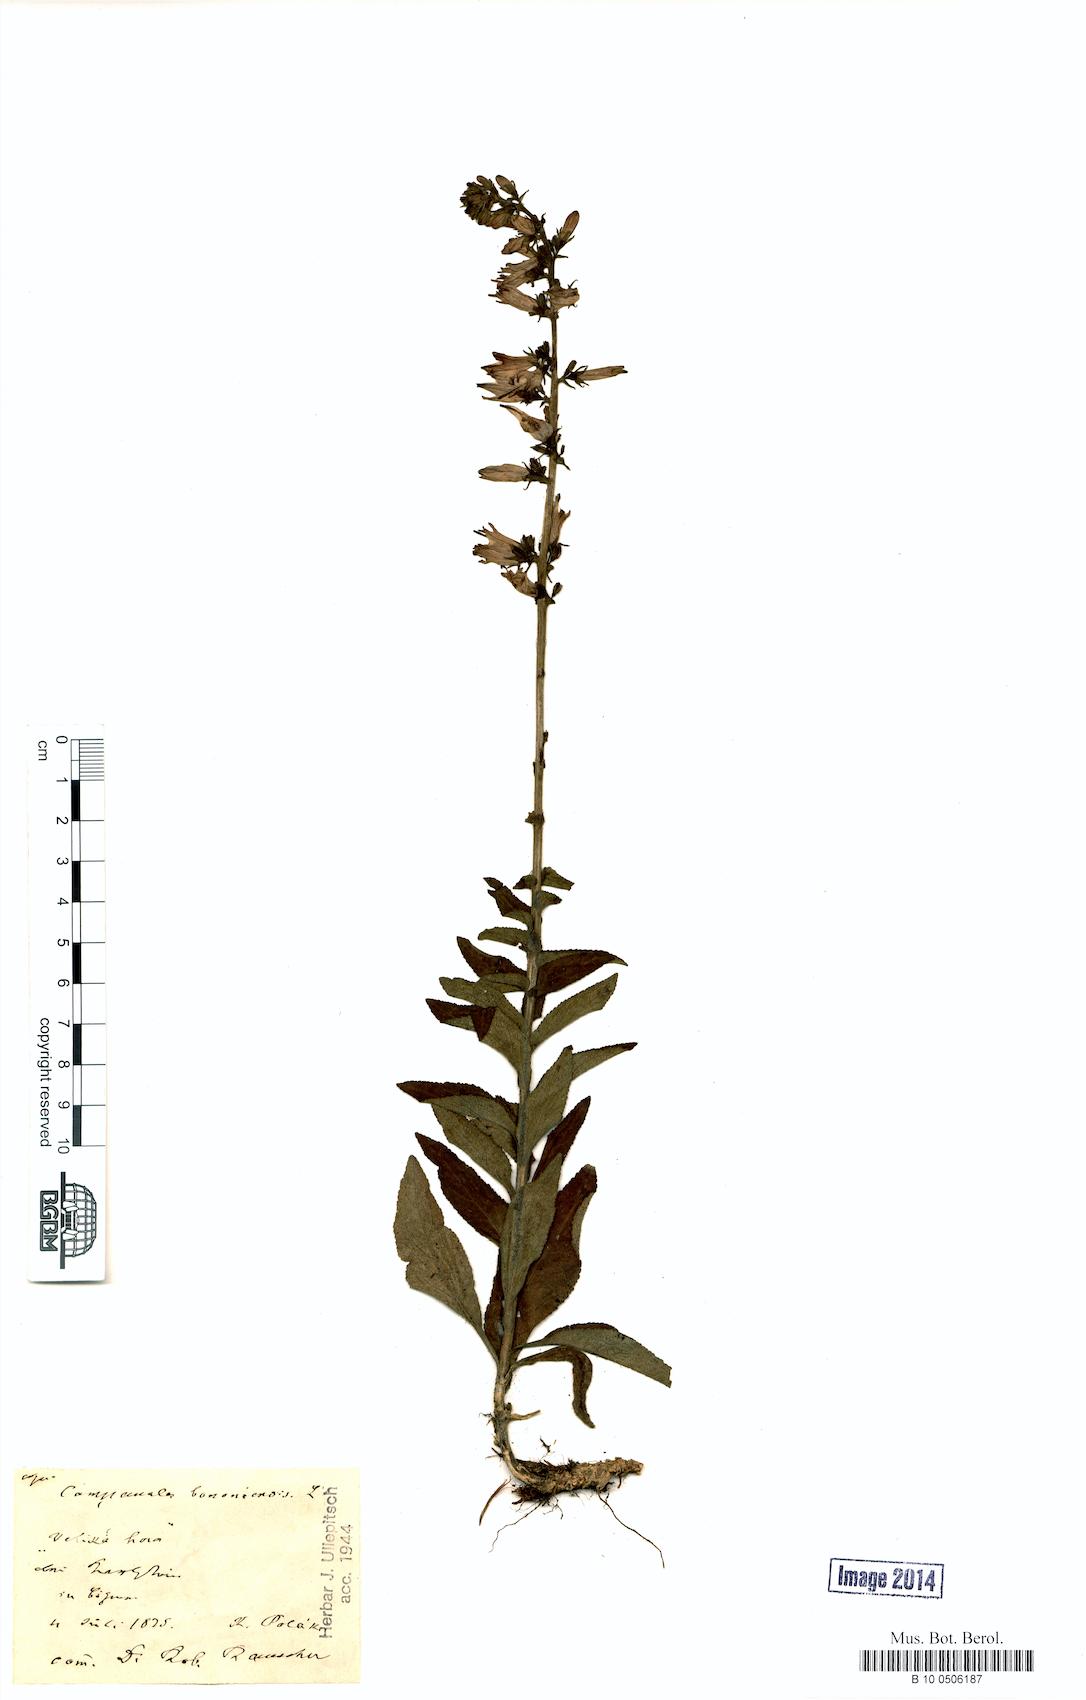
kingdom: Plantae
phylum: Tracheophyta
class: Magnoliopsida
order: Asterales
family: Campanulaceae
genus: Campanula
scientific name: Campanula bononiensis
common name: Pale bellflower
